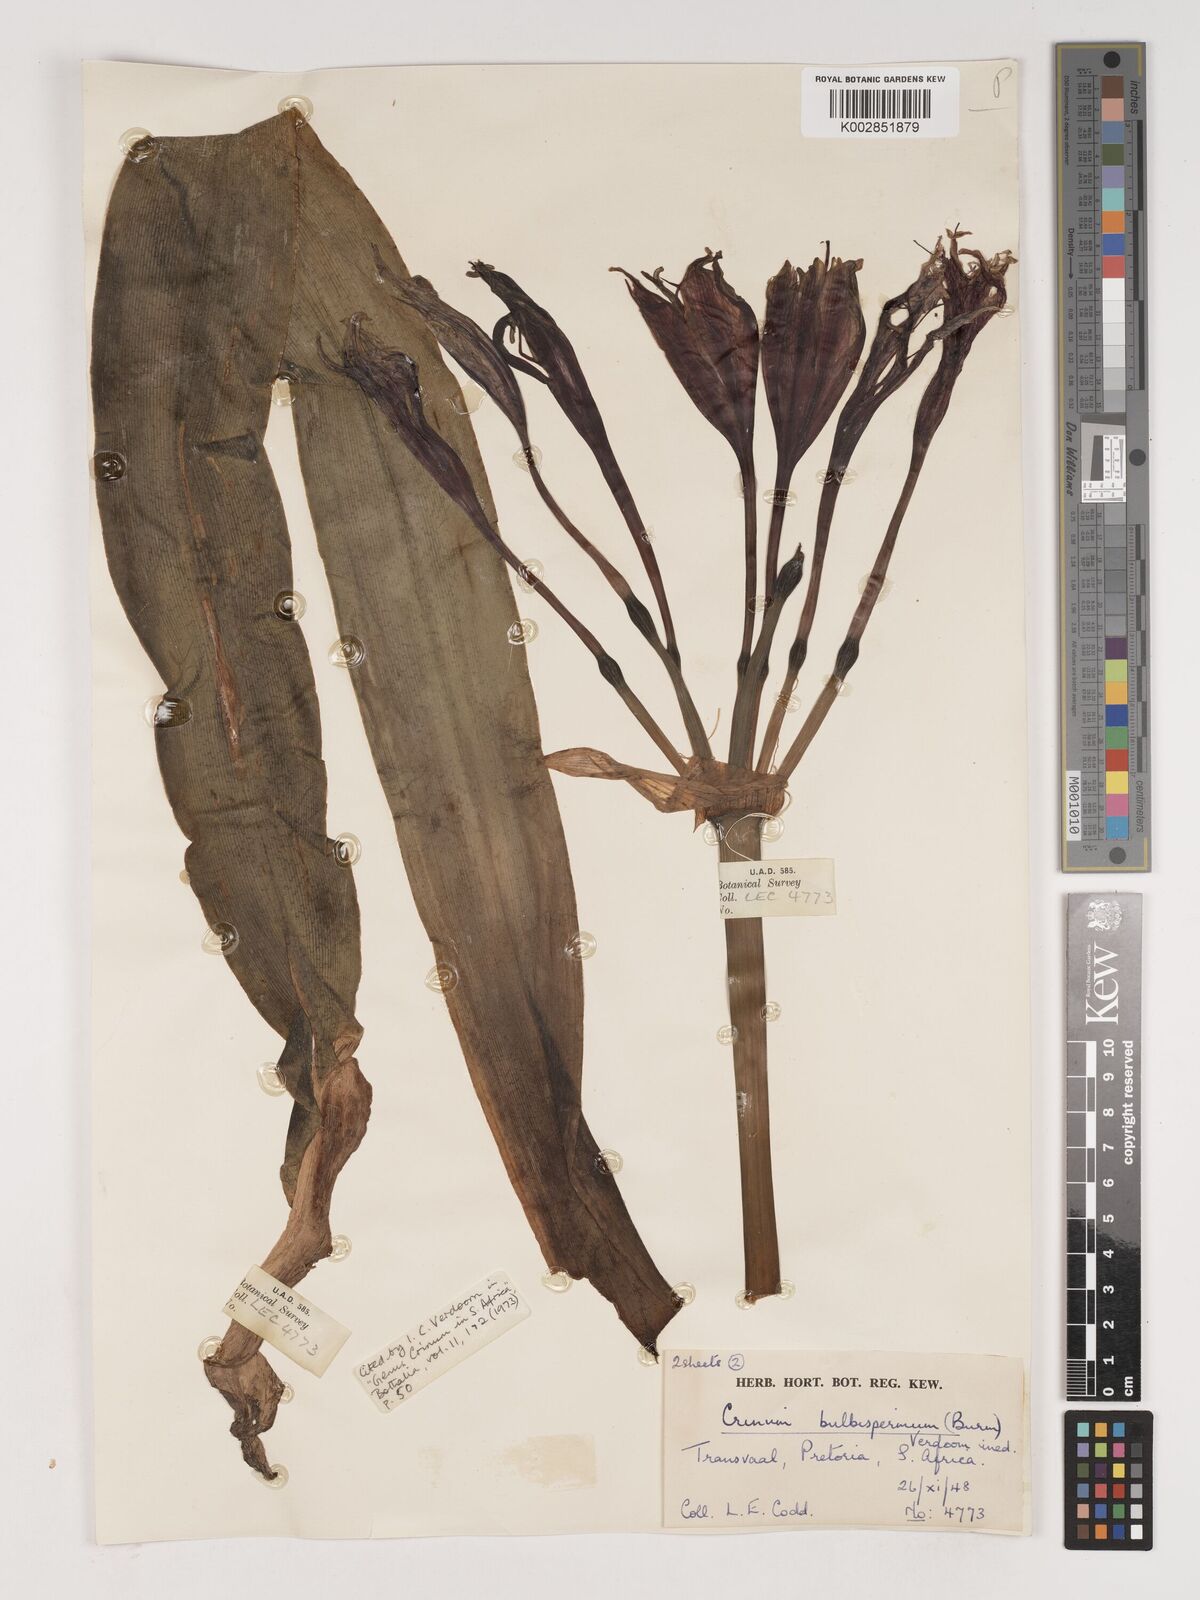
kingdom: Plantae
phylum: Tracheophyta
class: Liliopsida
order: Asparagales
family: Amaryllidaceae
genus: Crinum
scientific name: Crinum bulbispermum
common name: Hardy swamplily
